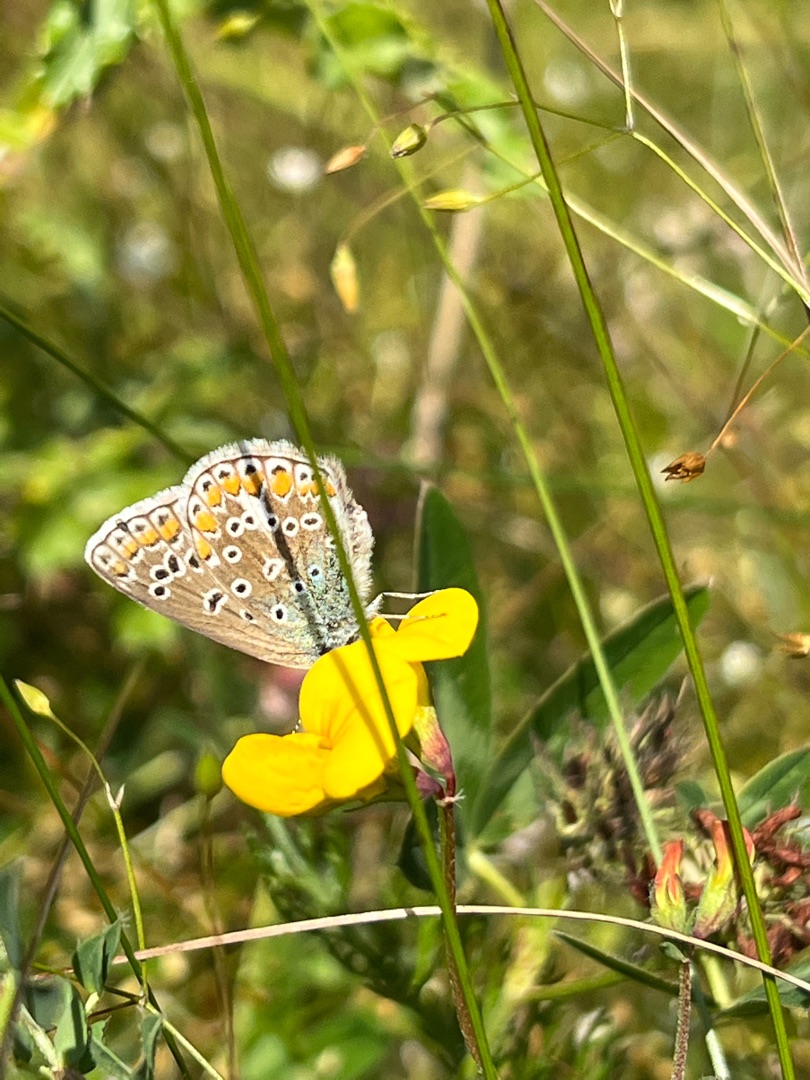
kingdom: Animalia
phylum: Arthropoda
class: Insecta
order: Lepidoptera
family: Lycaenidae
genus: Polyommatus
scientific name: Polyommatus icarus
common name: Almindelig blåfugl
